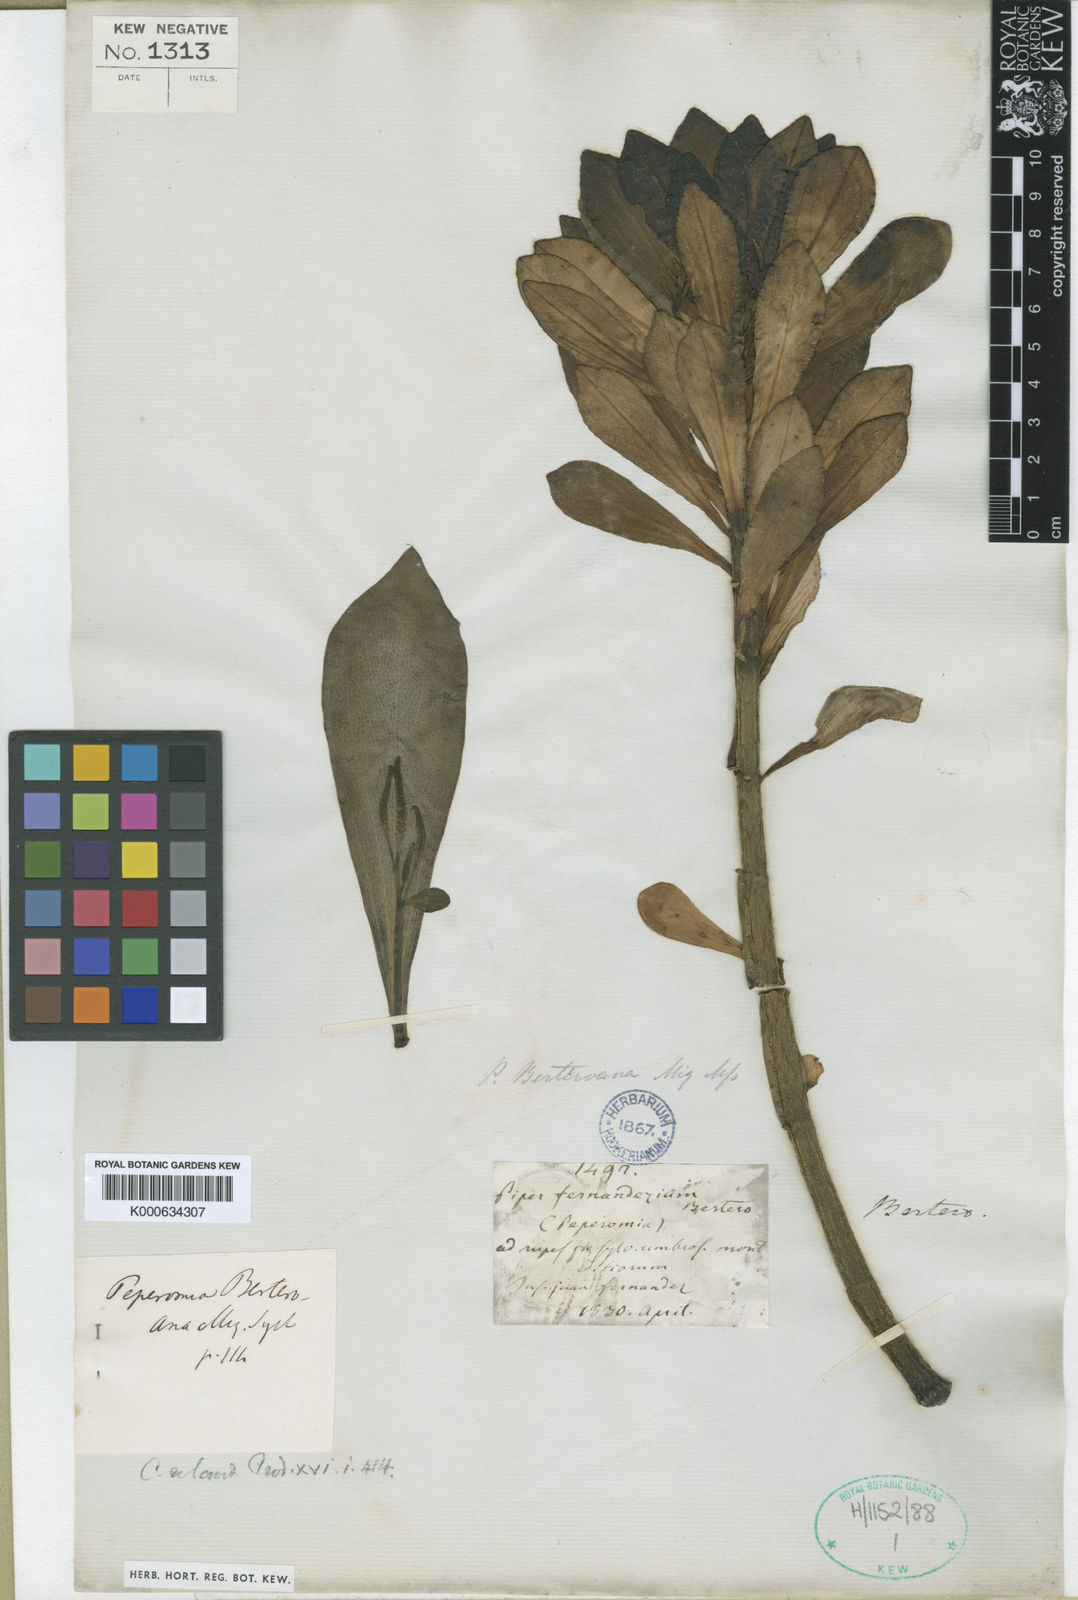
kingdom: Plantae
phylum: Tracheophyta
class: Magnoliopsida
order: Piperales
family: Piperaceae
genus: Peperomia
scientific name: Peperomia berteroana
